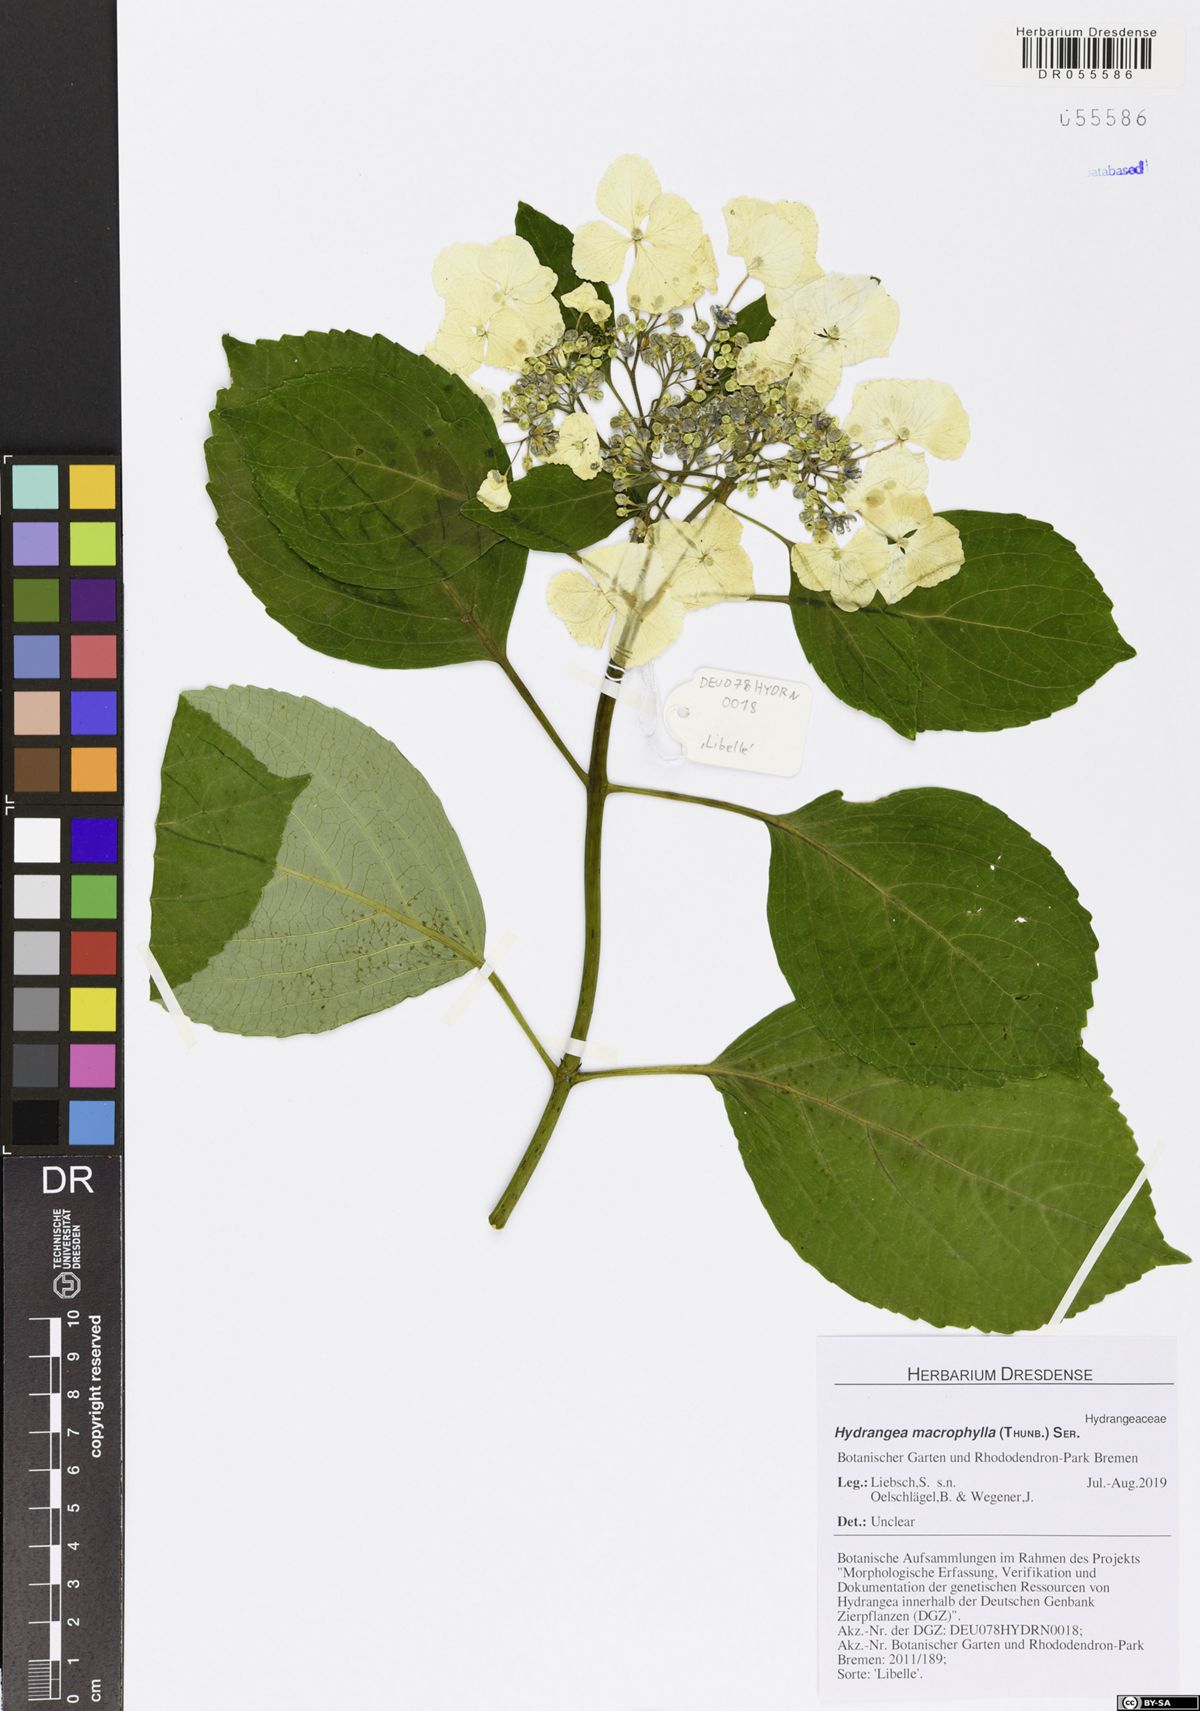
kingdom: Plantae
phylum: Tracheophyta
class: Magnoliopsida
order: Cornales
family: Hydrangeaceae
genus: Hydrangea
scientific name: Hydrangea macrophylla
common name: Hydrangea
